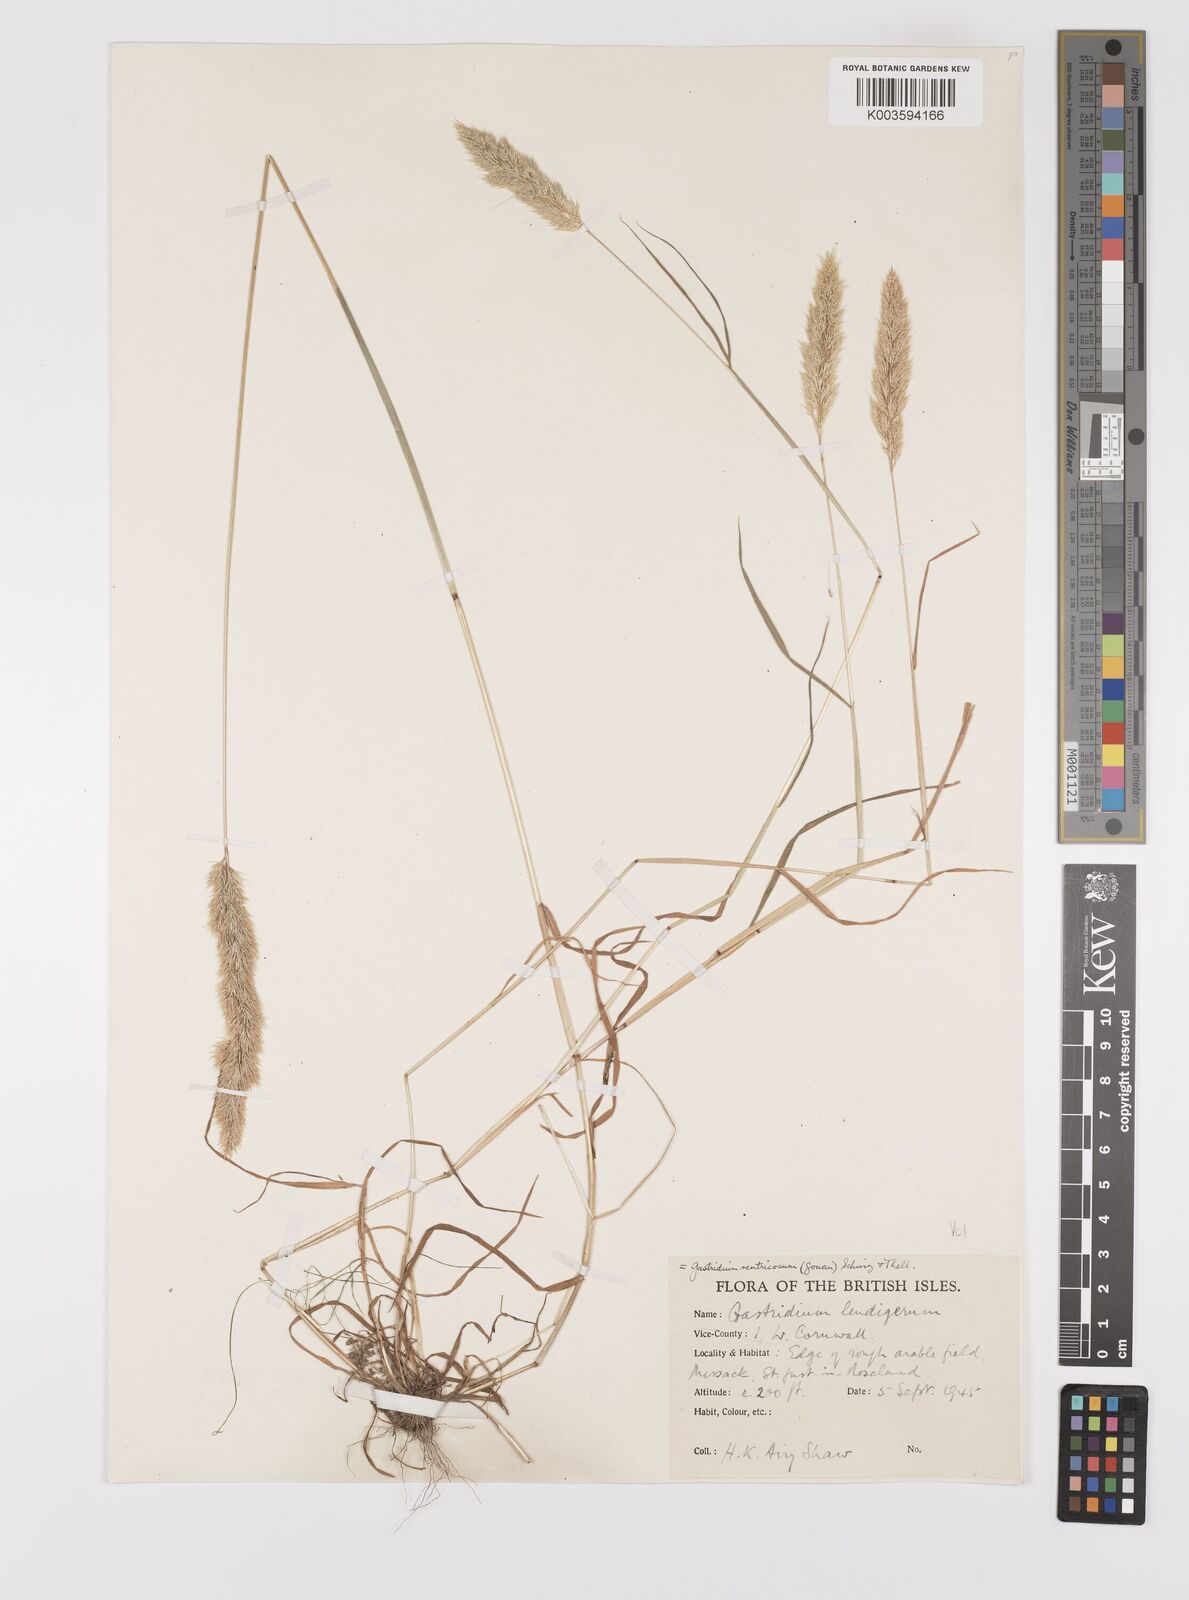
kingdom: Plantae
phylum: Tracheophyta
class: Liliopsida
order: Poales
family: Poaceae
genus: Gastridium
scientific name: Gastridium ventricosum
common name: Nit-grass
